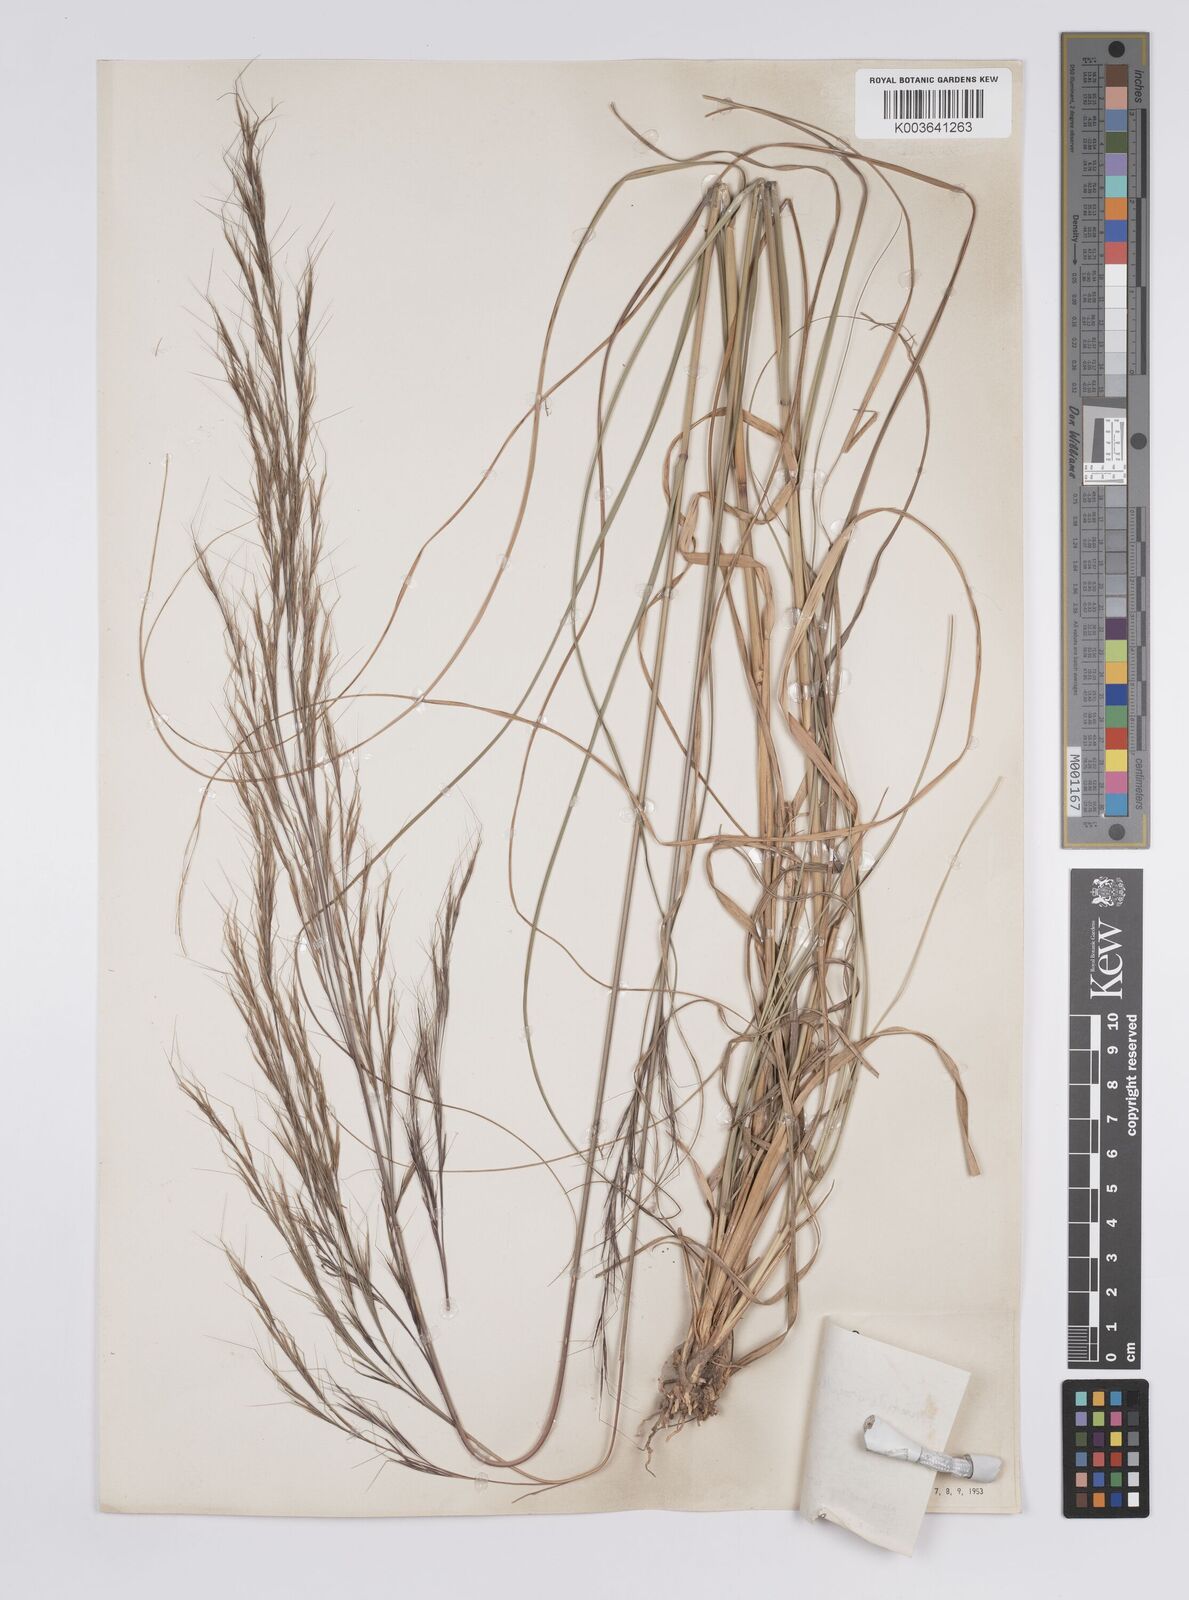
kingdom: Plantae
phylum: Tracheophyta
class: Liliopsida
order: Poales
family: Poaceae
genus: Aristida
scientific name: Aristida schiedeana
